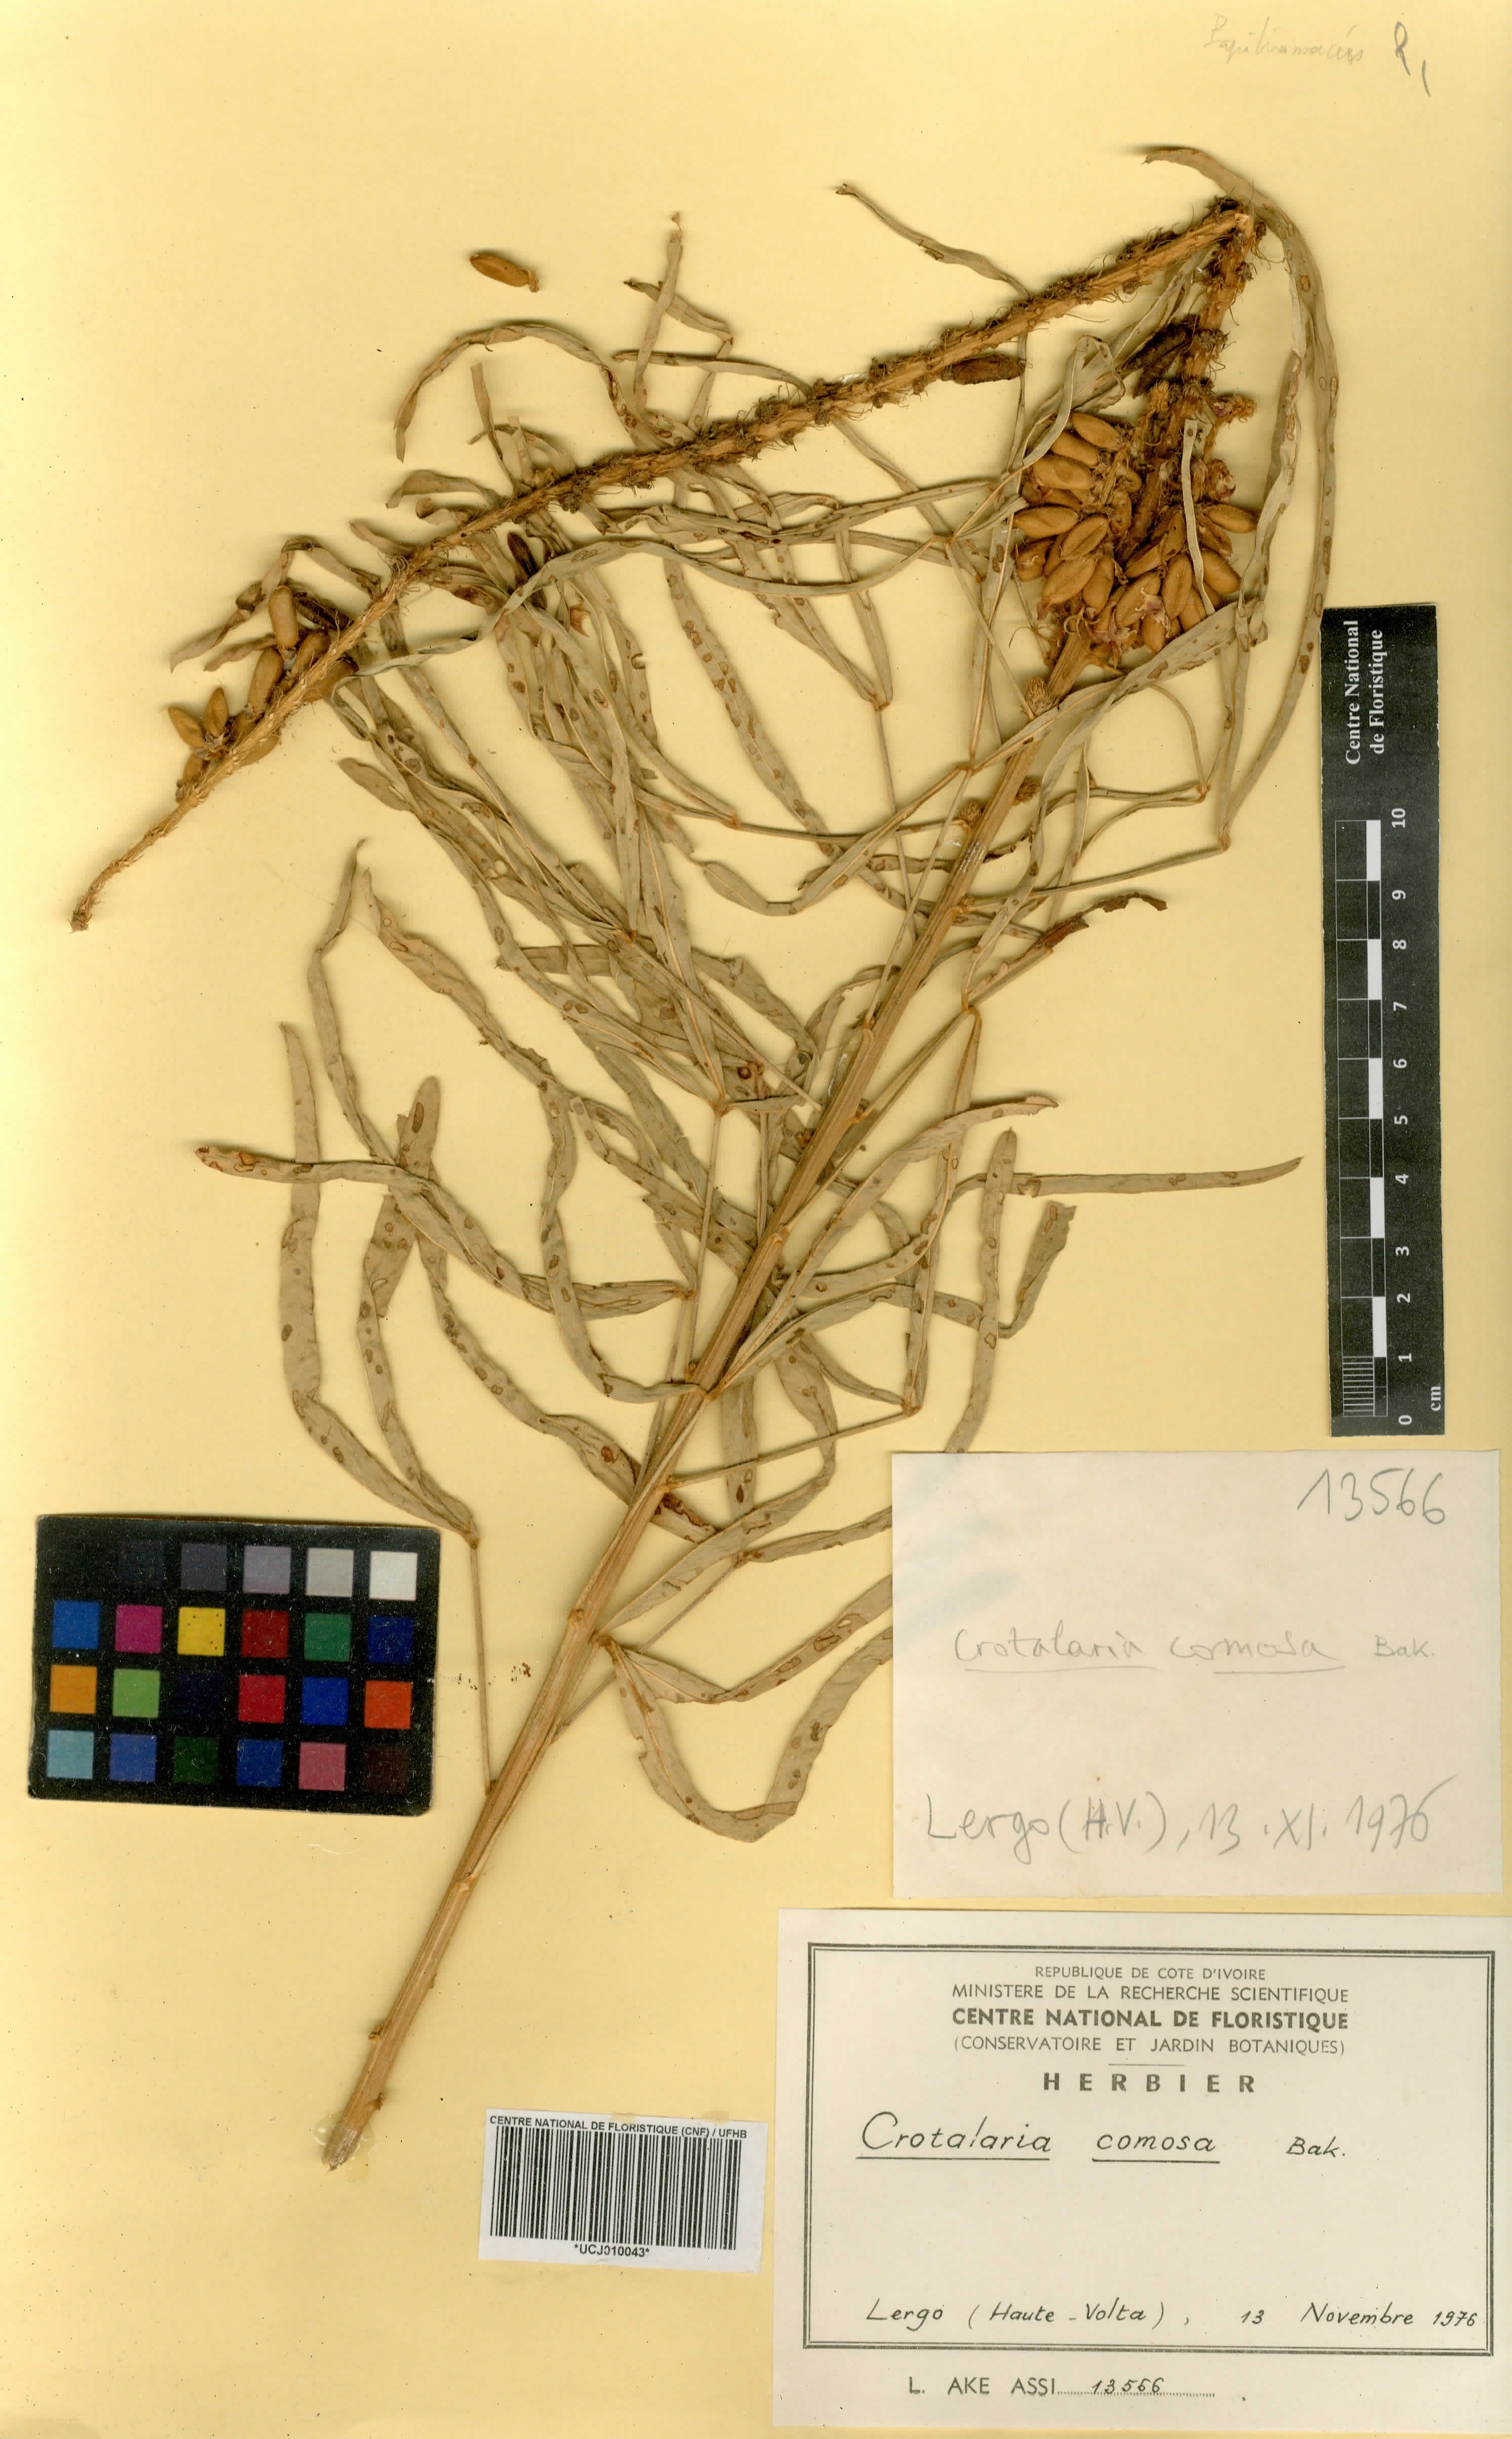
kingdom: Plantae
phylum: Tracheophyta
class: Magnoliopsida
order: Fabales
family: Fabaceae
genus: Crotalaria
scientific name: Crotalaria comosa
